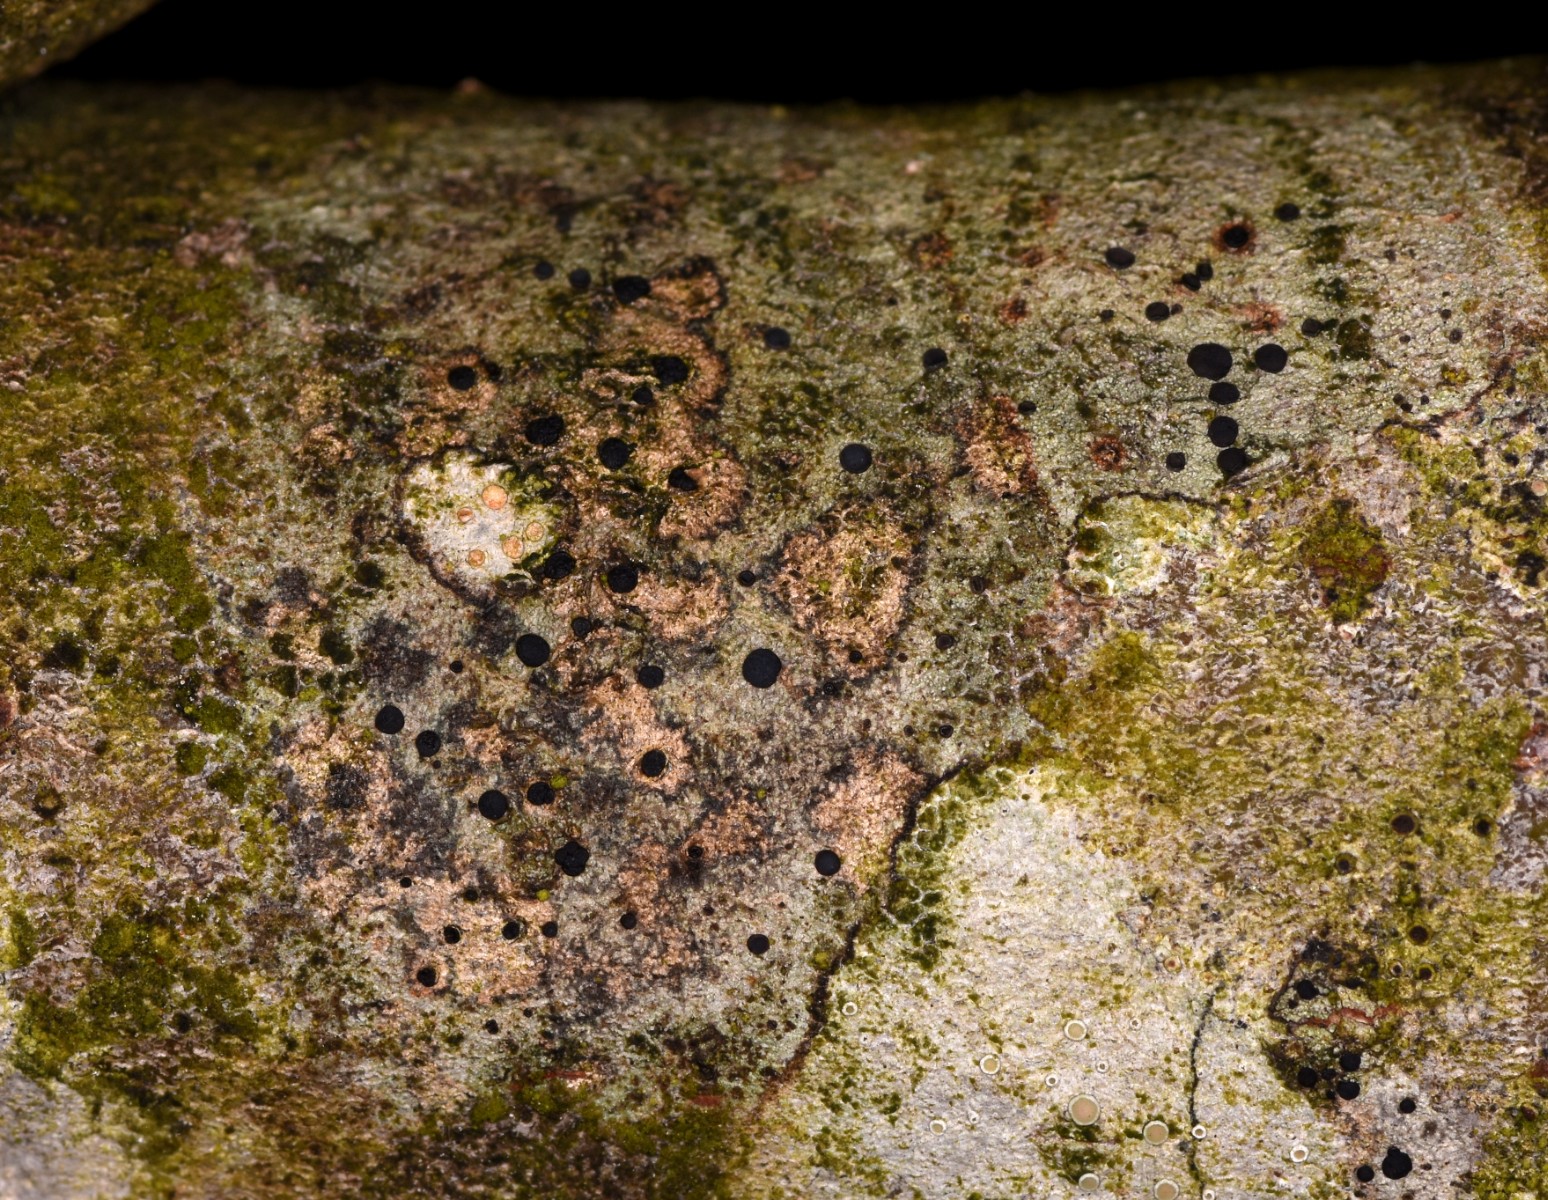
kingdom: Fungi
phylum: Ascomycota
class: Lecanoromycetes
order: Lecanorales
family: Lecanoraceae
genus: Lecidella
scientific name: Lecidella elaeochroma
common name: grågrøn skivelav
